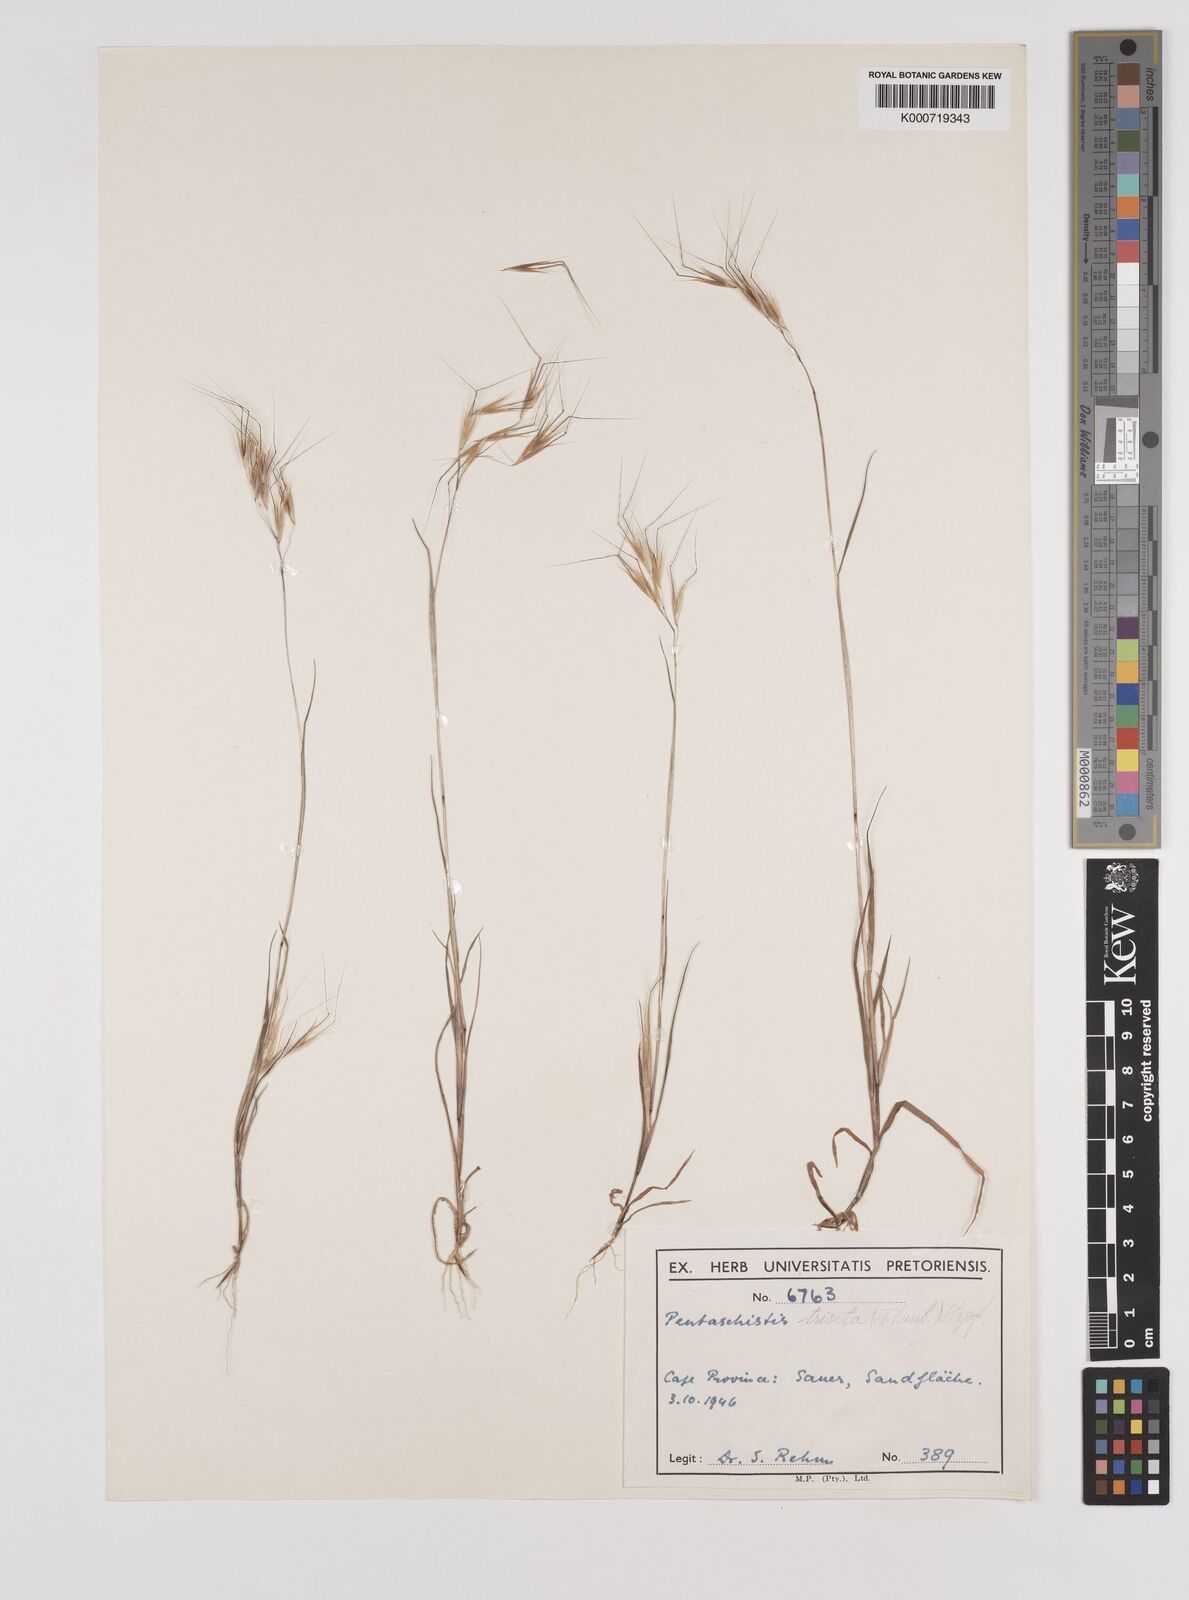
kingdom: Plantae
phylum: Tracheophyta
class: Liliopsida
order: Poales
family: Poaceae
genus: Pentameris
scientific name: Pentameris triseta
